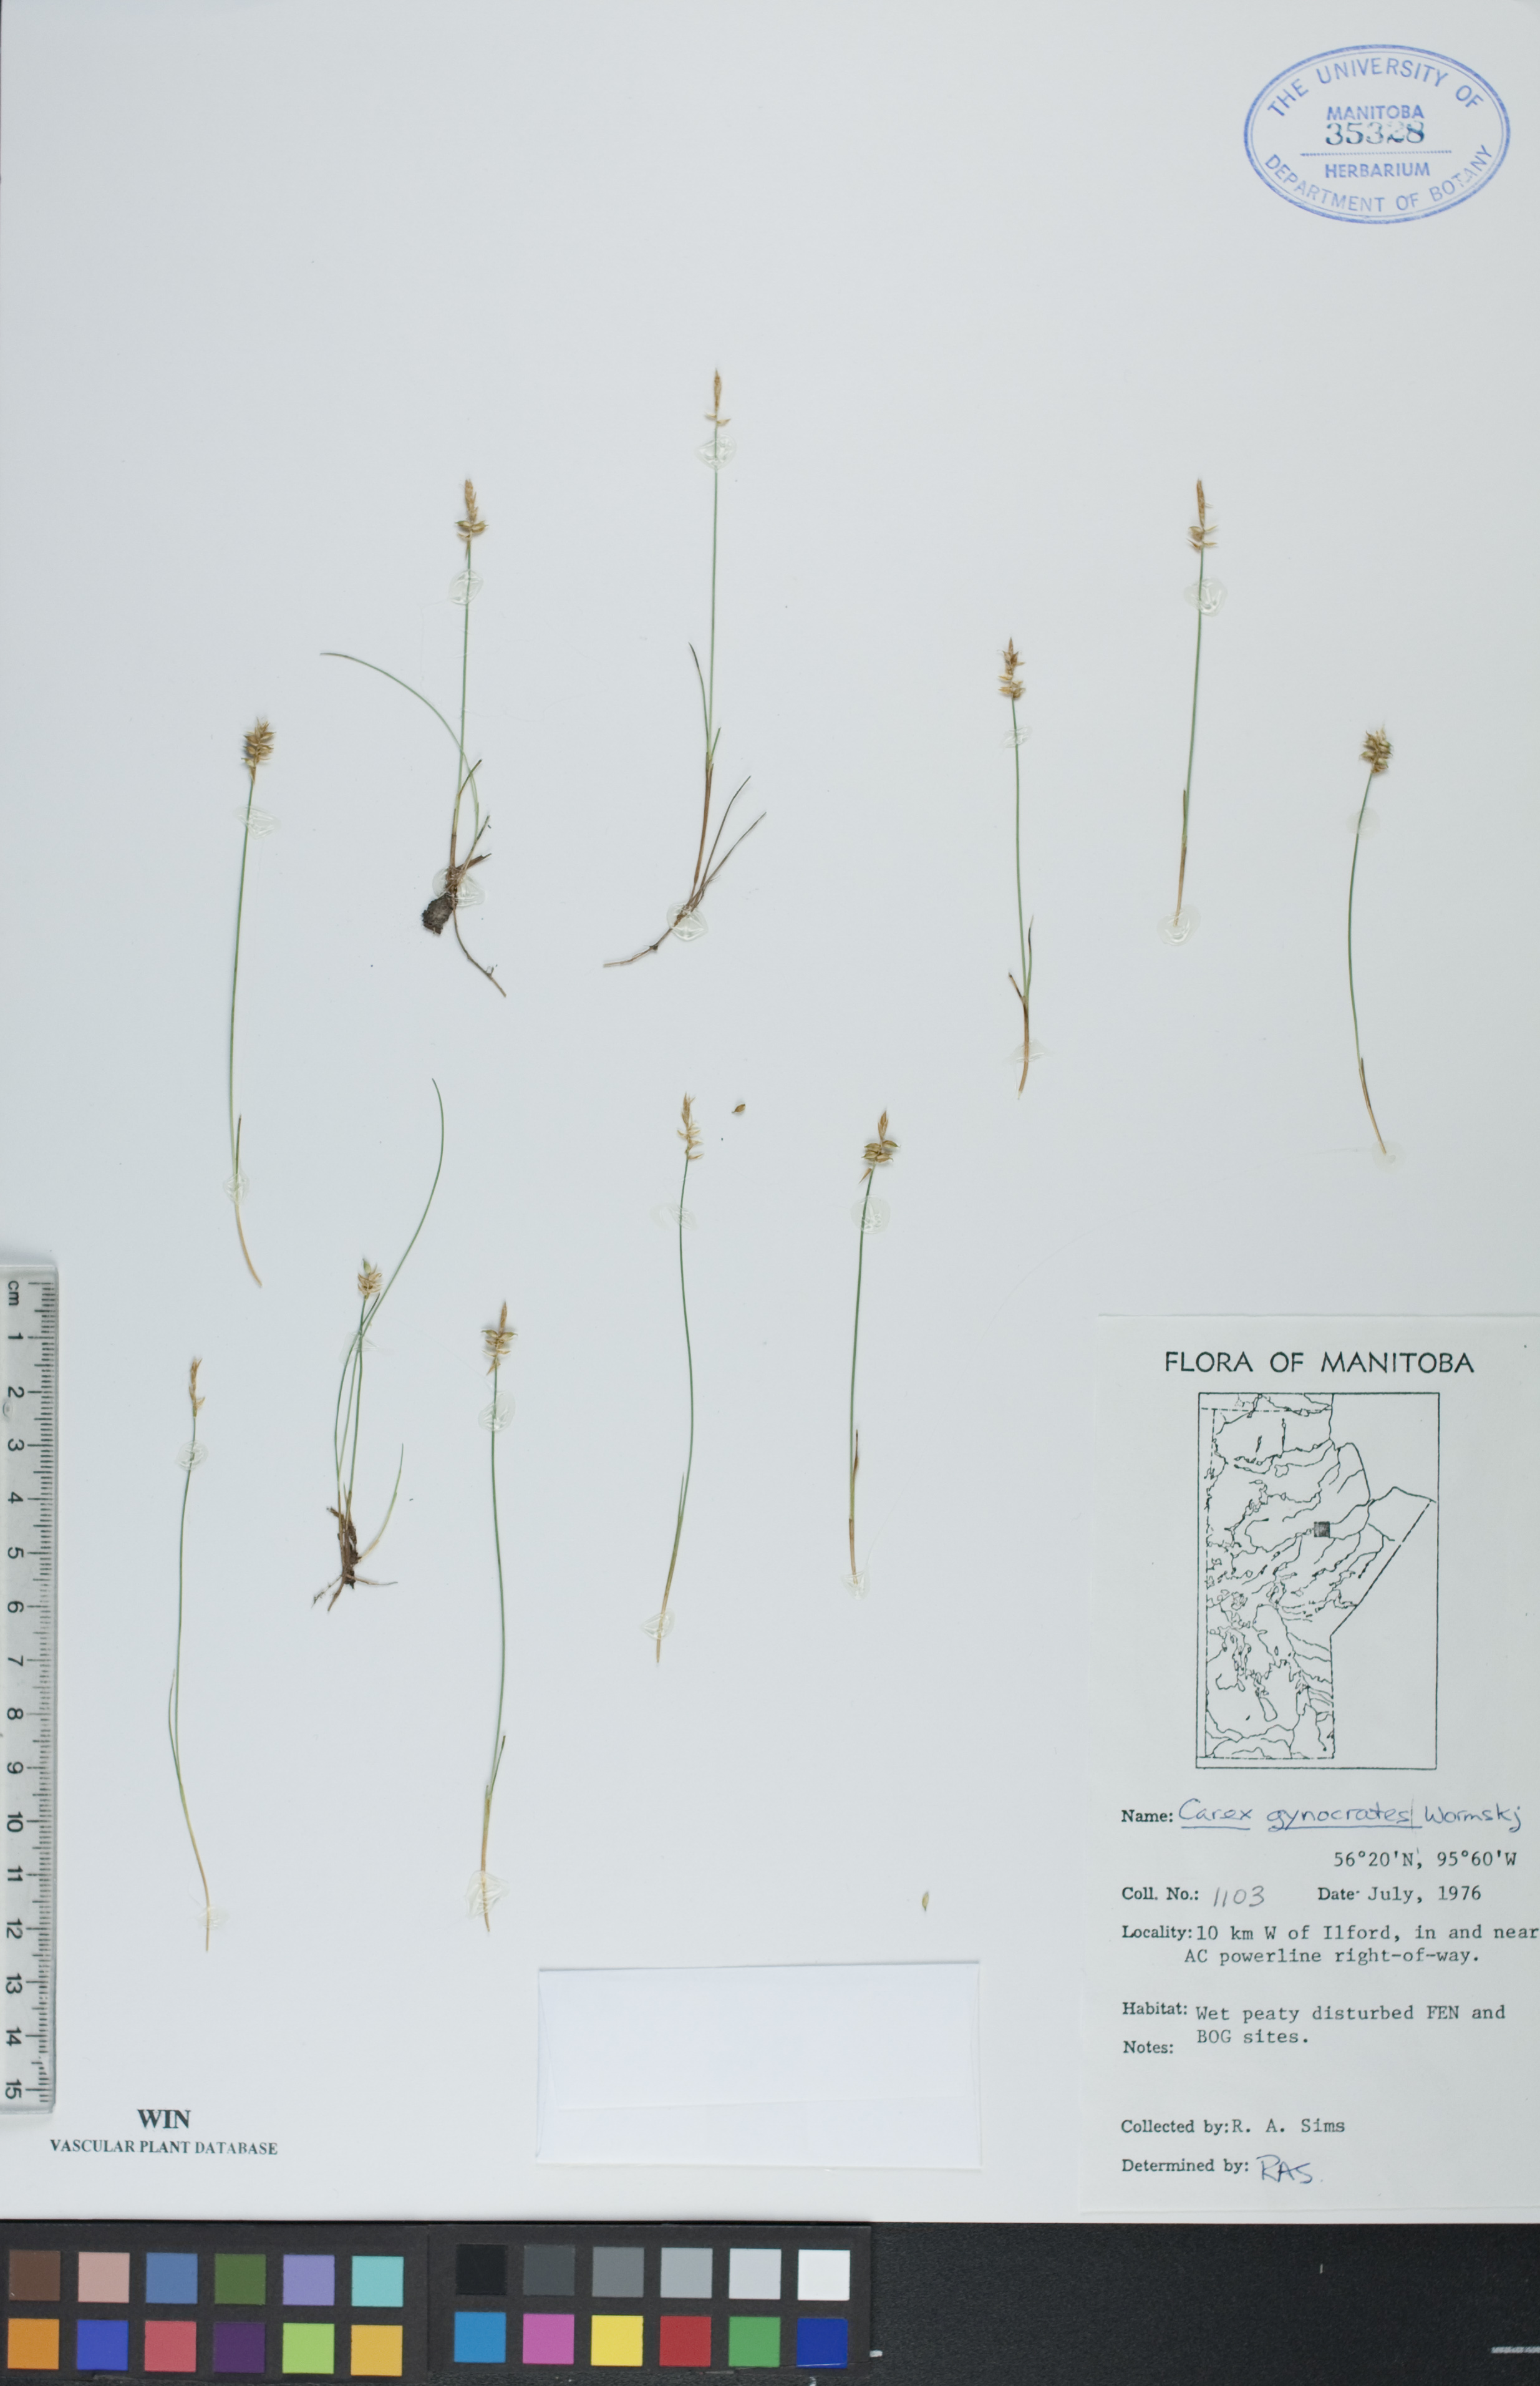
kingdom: Plantae
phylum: Tracheophyta
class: Liliopsida
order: Poales
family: Cyperaceae
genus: Carex
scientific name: Carex nardina
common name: Nard sedge
